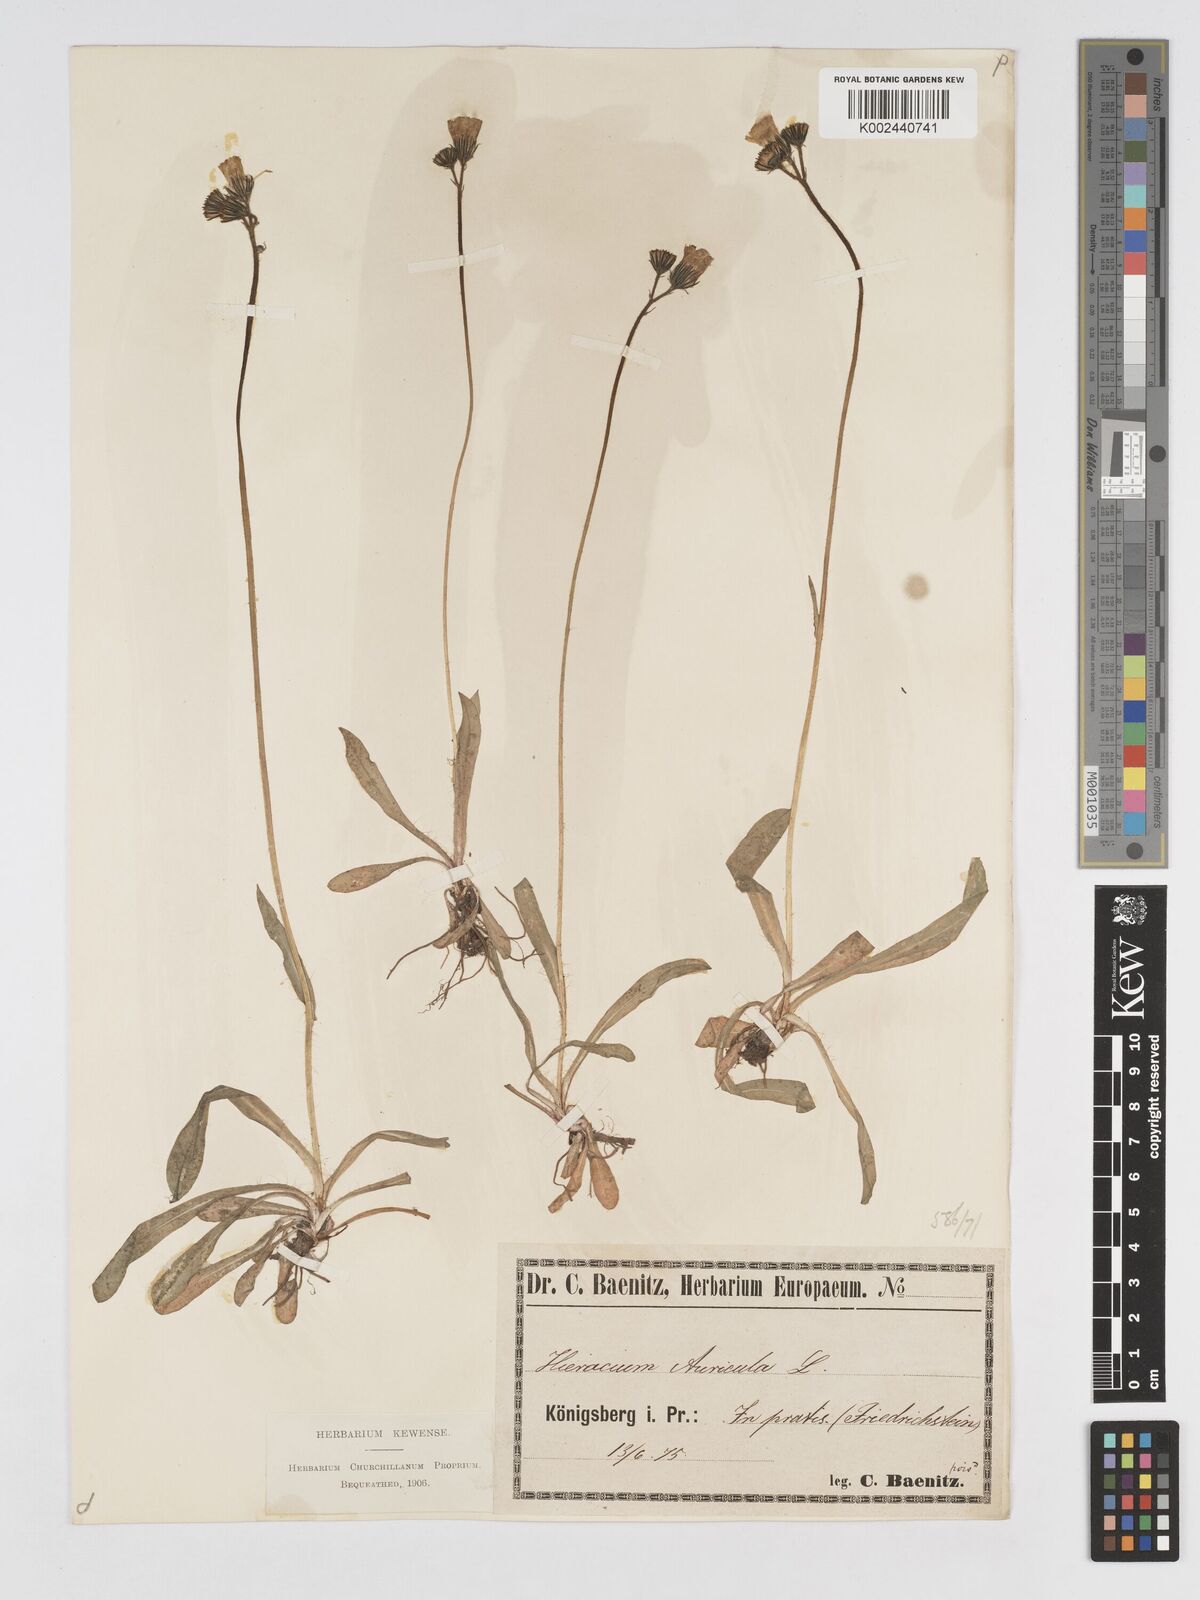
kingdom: Plantae
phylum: Tracheophyta
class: Magnoliopsida
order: Asterales
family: Asteraceae
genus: Pilosella
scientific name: Pilosella floribunda
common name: Glaucous hawkweed
